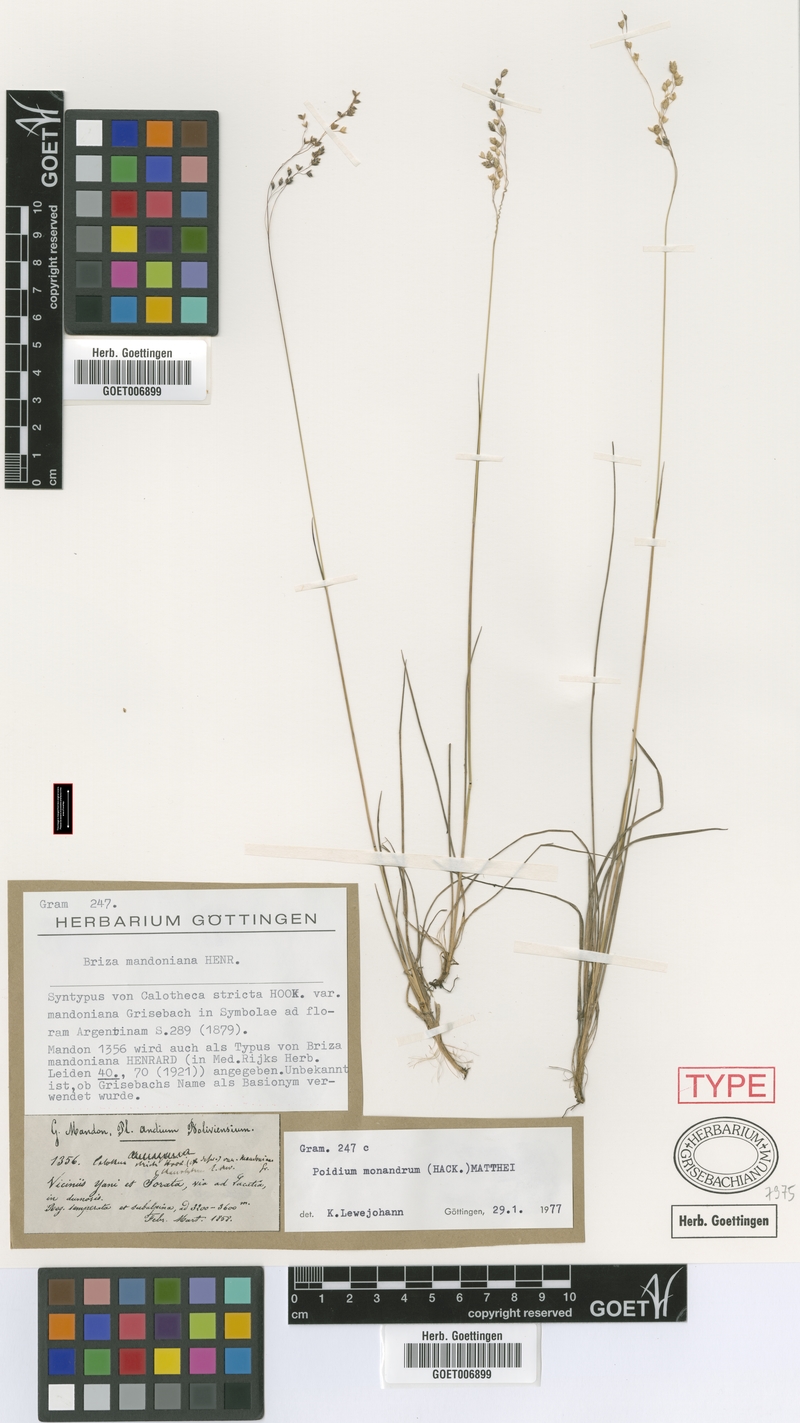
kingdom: Plantae
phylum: Tracheophyta
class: Liliopsida
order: Poales
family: Poaceae
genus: Poidium
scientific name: Poidium monandrum
